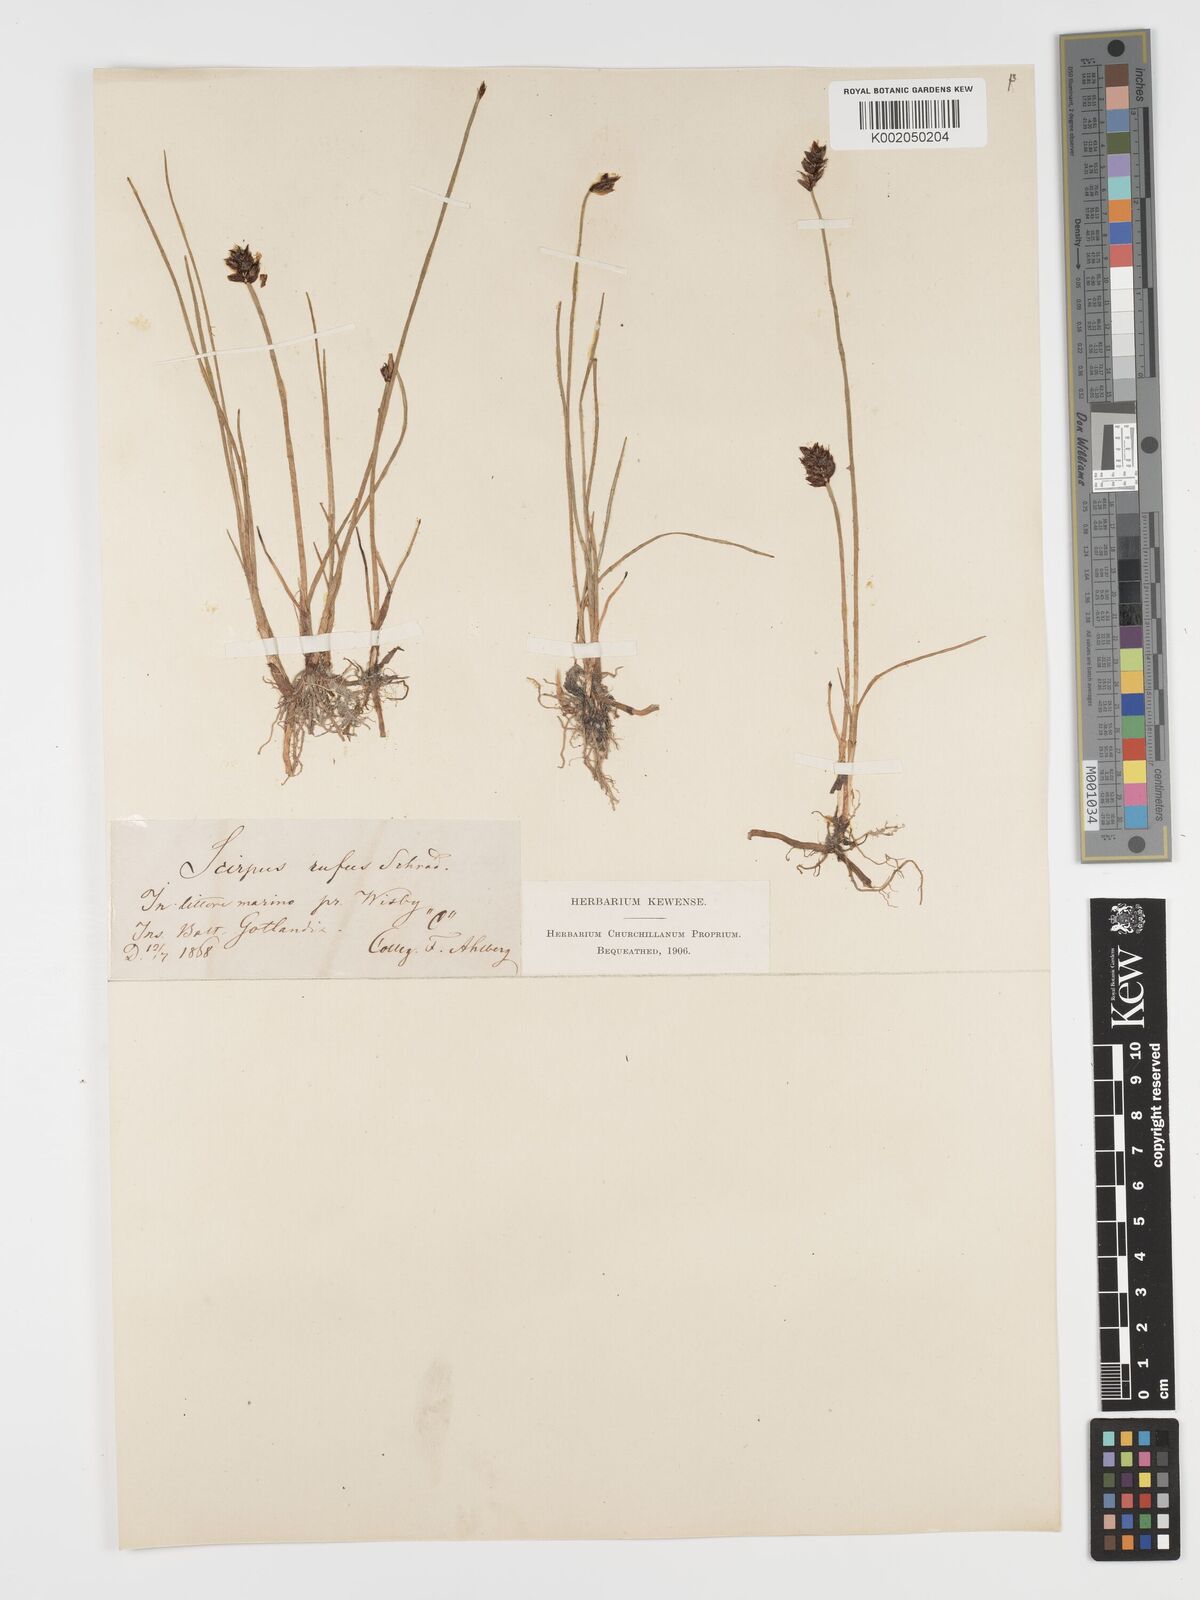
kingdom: Plantae
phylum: Tracheophyta
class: Liliopsida
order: Poales
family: Cyperaceae
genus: Blysmus
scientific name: Blysmus rufus
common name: Saltmarsh flat-sedge
